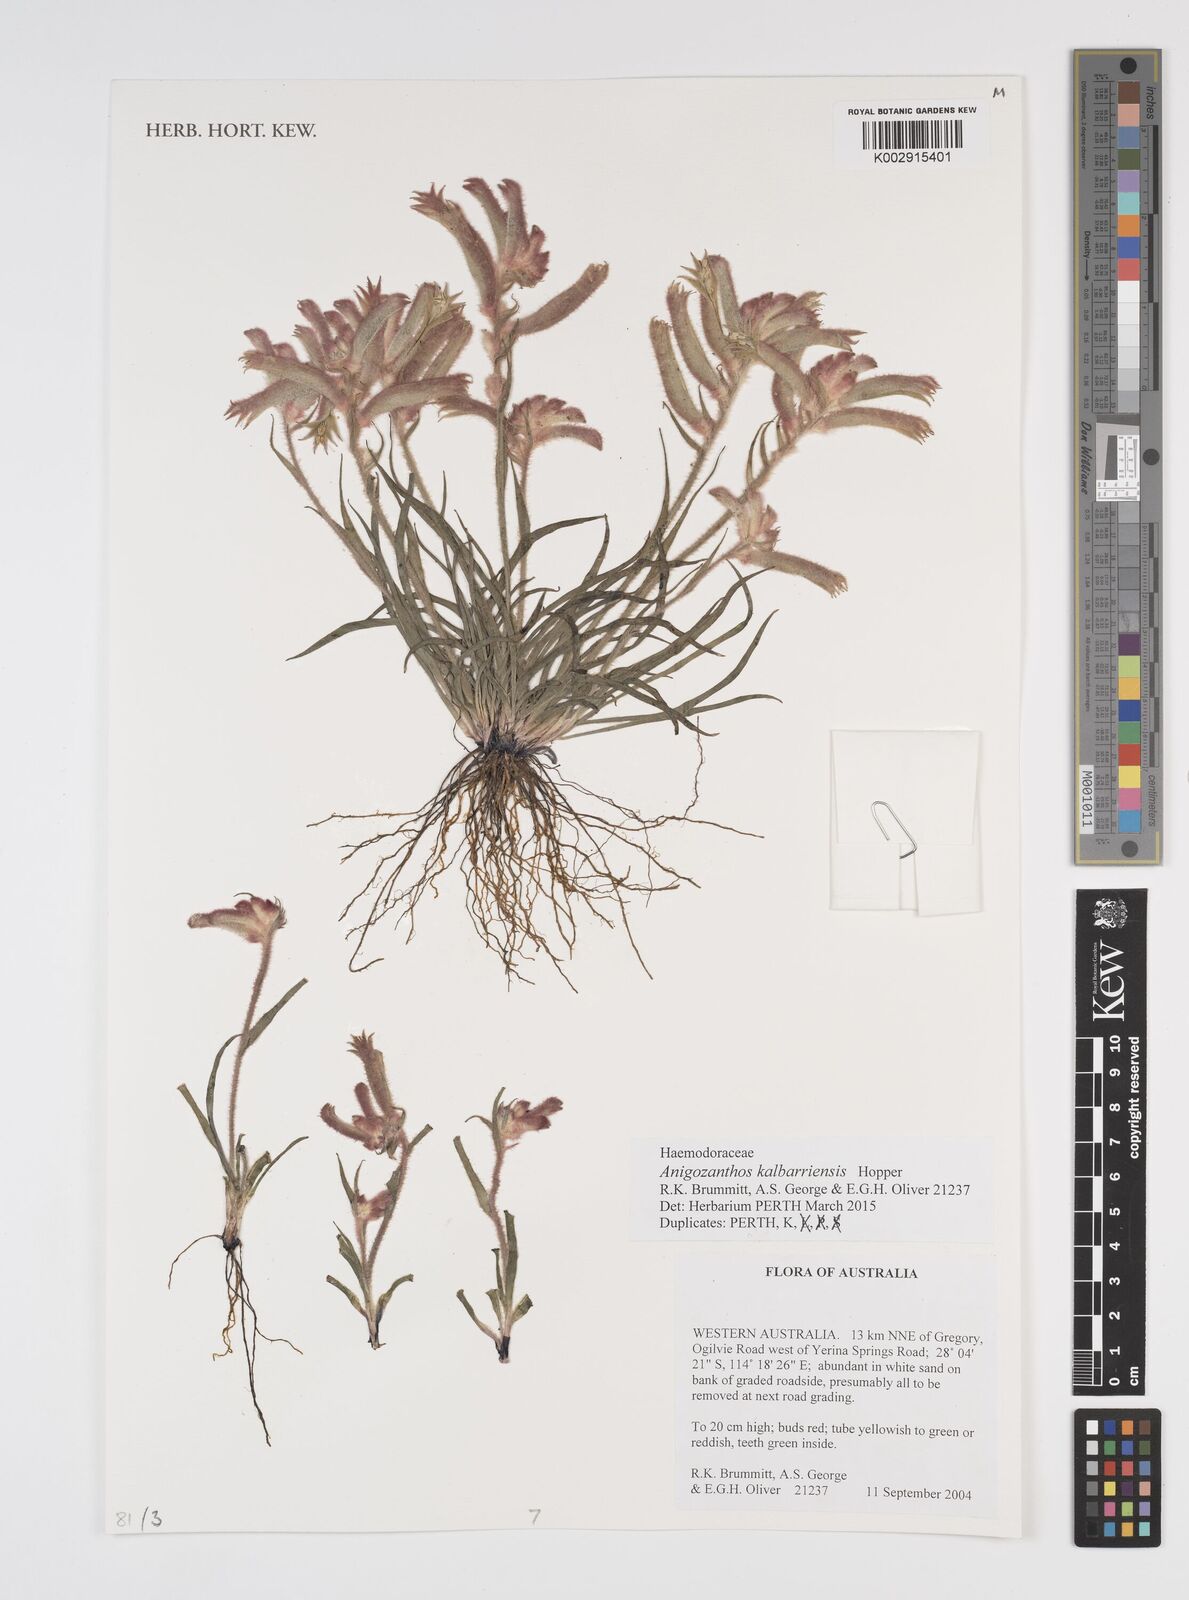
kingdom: Plantae
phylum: Tracheophyta
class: Liliopsida
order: Commelinales
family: Haemodoraceae
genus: Anigozanthos
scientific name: Anigozanthos kalbarriensis
